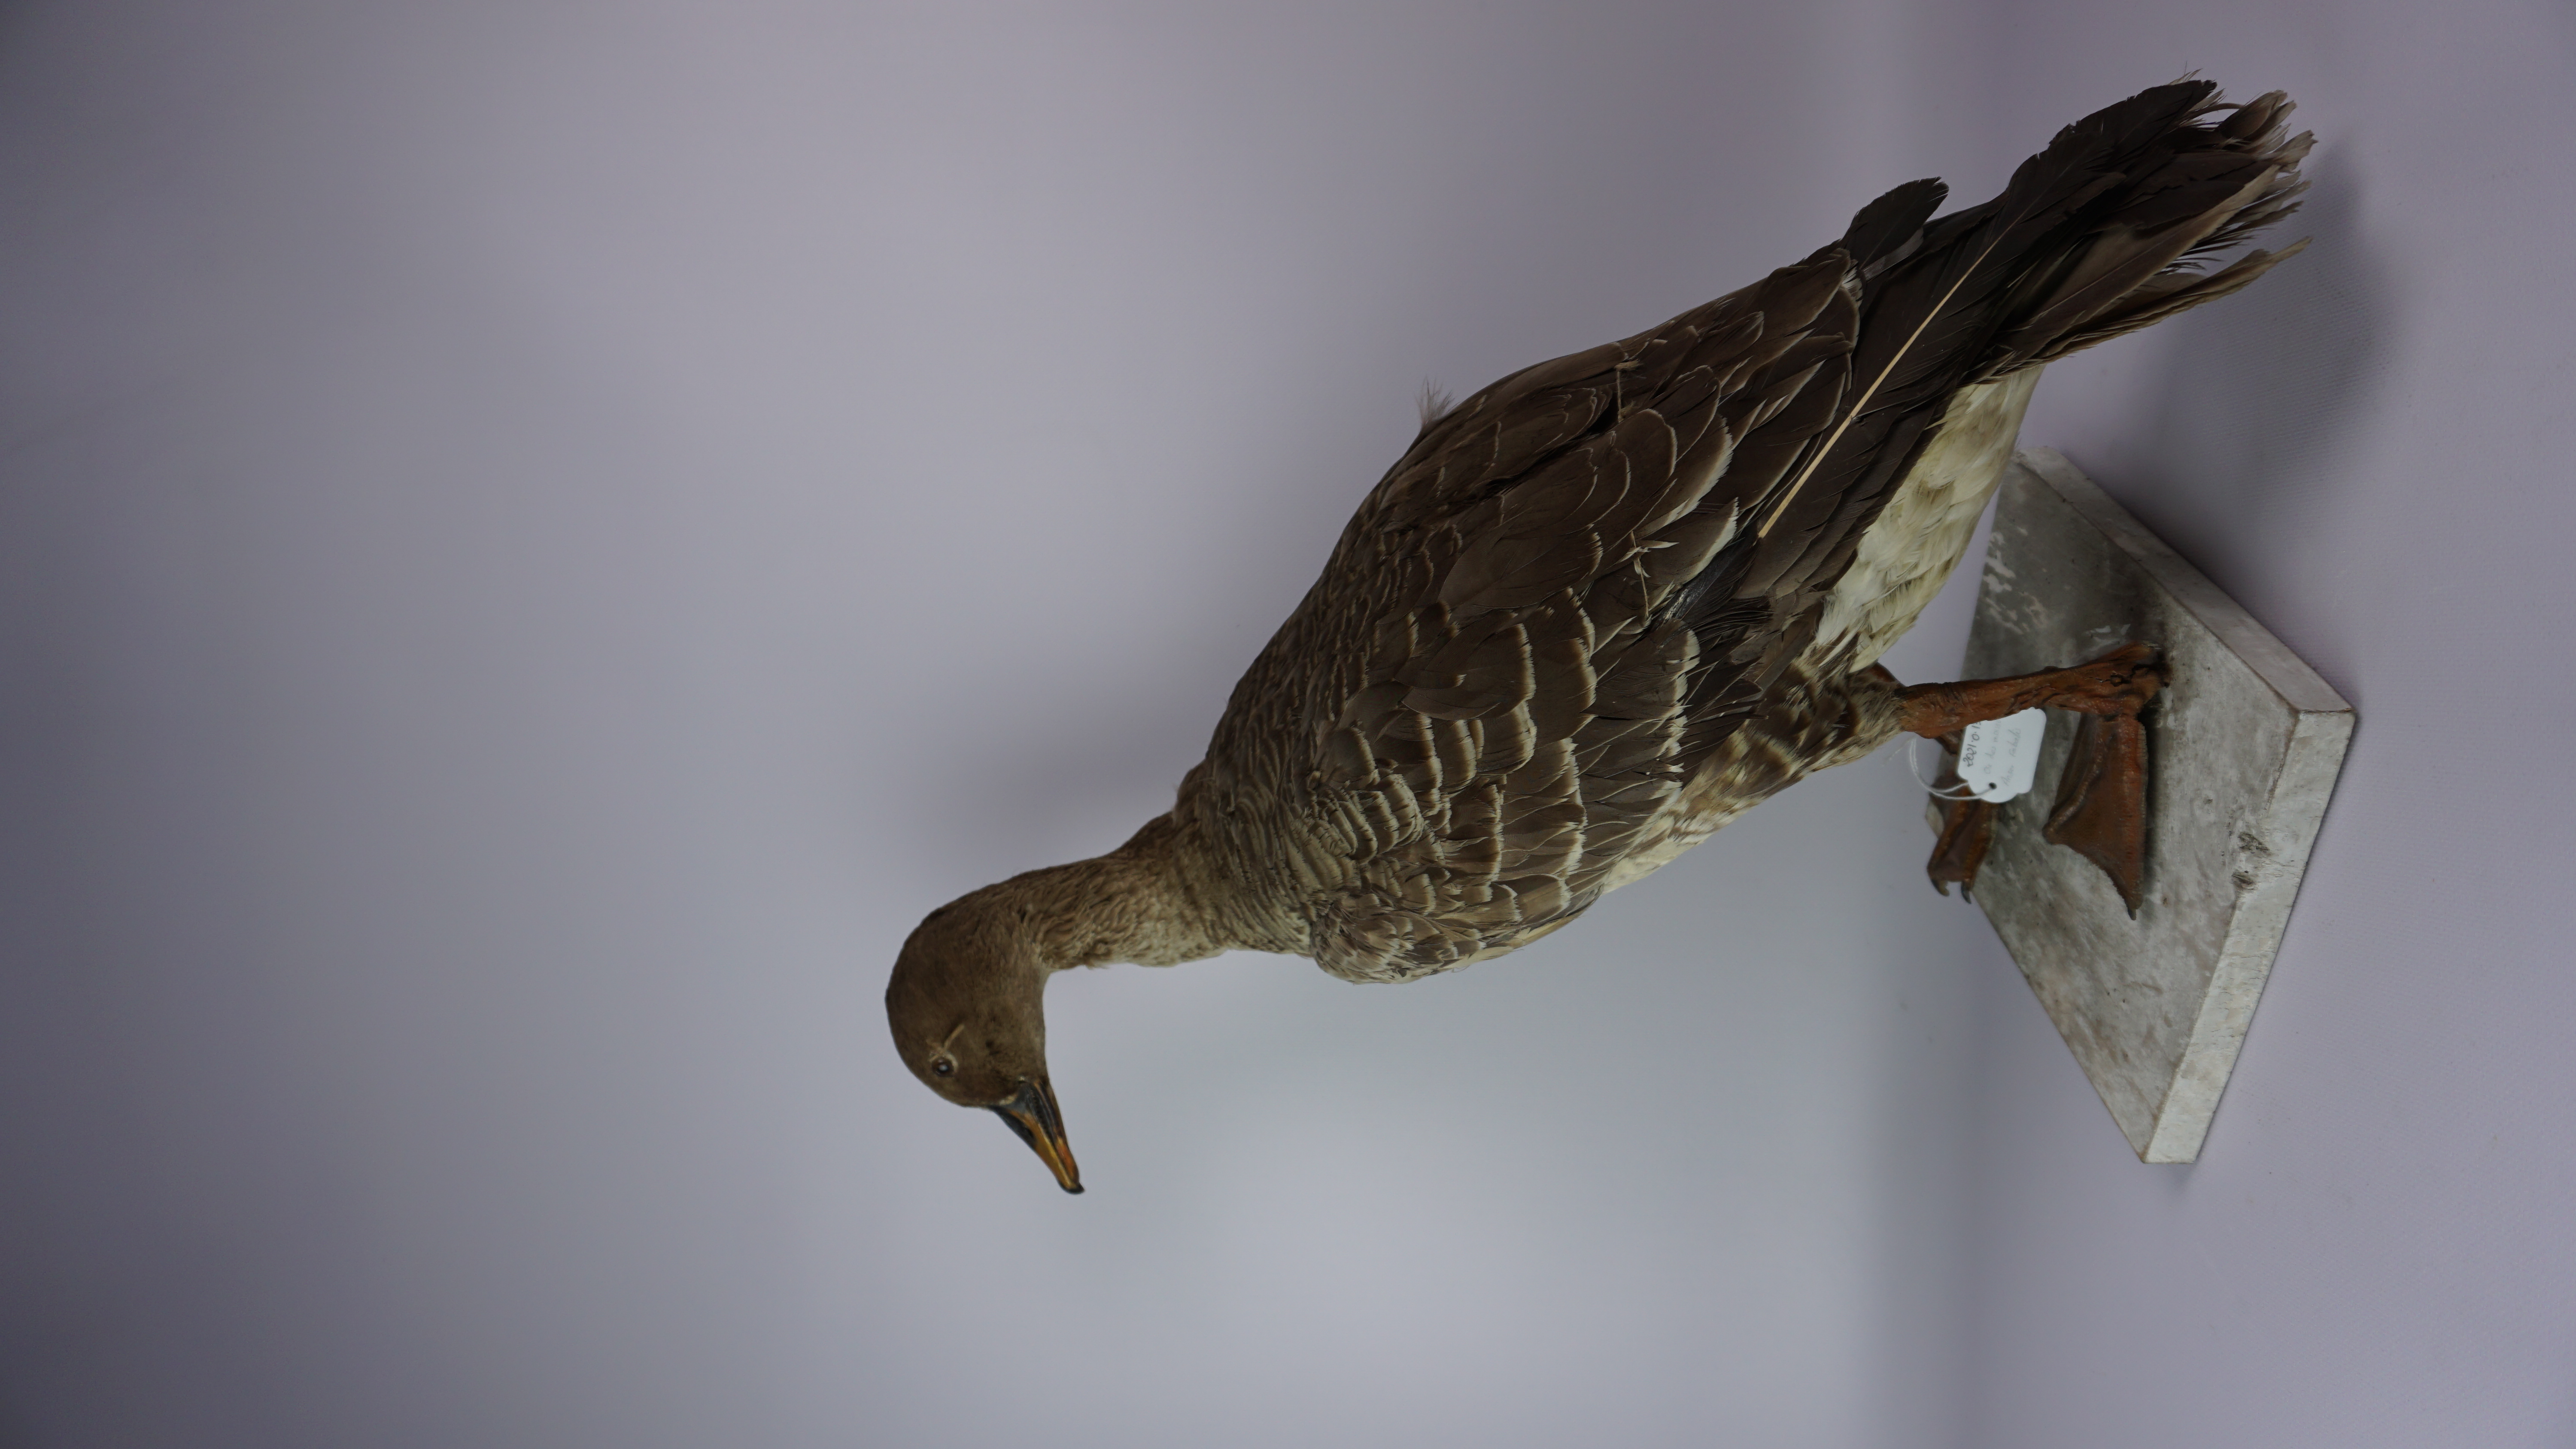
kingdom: Animalia
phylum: Chordata
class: Aves
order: Anseriformes
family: Anatidae
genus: Anser
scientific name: Anser fabalis
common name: Bean goose
